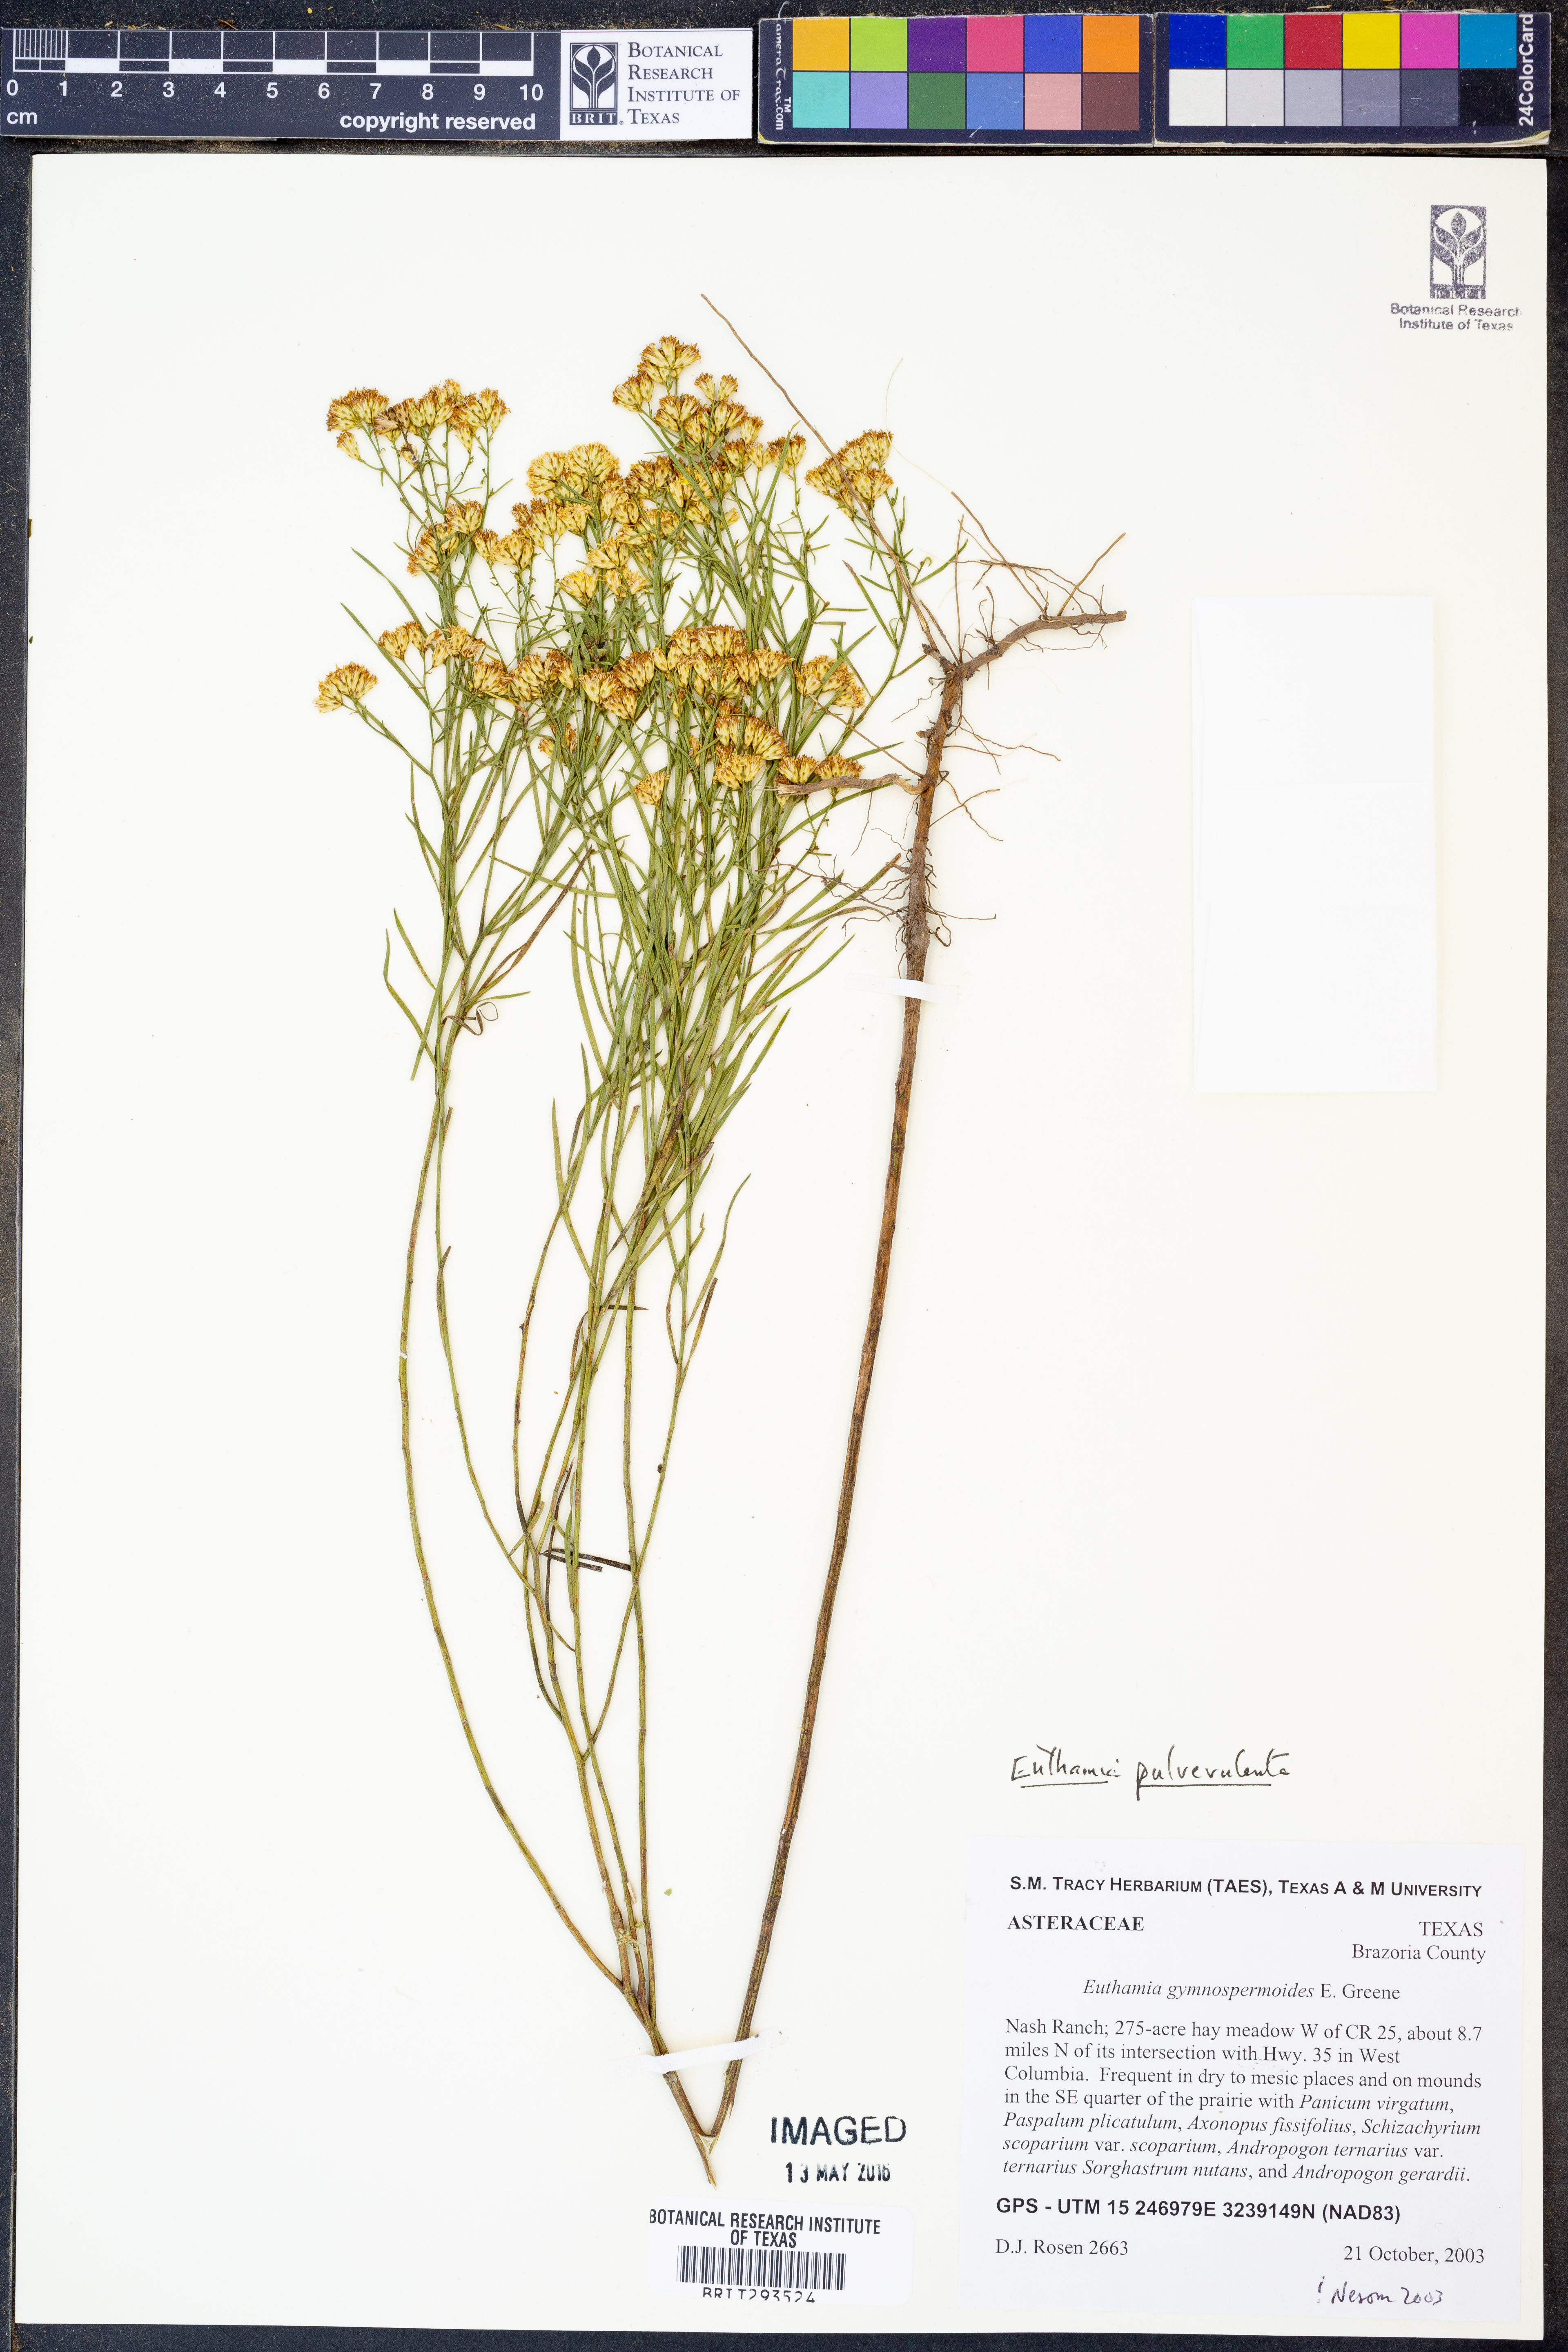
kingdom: Plantae
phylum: Tracheophyta
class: Magnoliopsida
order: Asterales
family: Asteraceae
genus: Euthamia
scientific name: Euthamia pulverulenta
